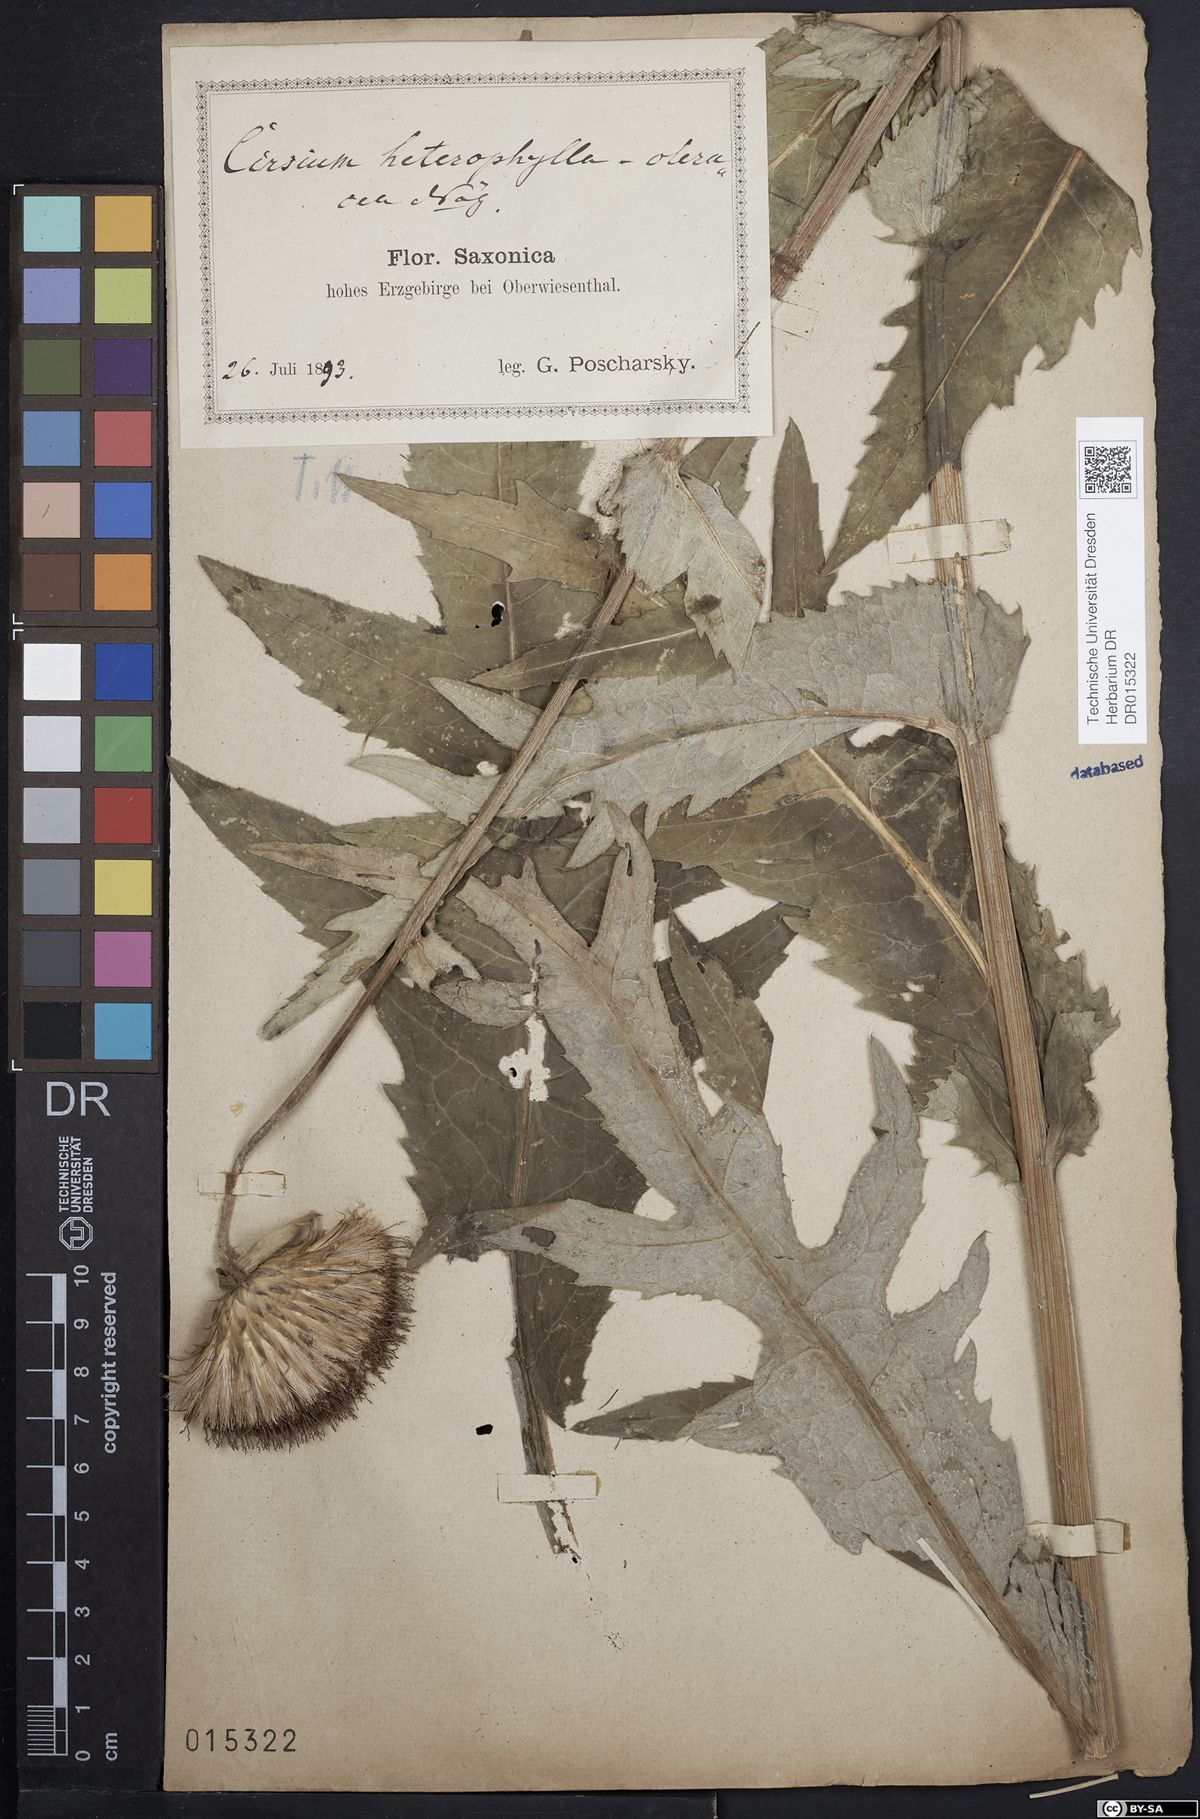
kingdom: Plantae
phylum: Tracheophyta
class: Magnoliopsida
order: Asterales
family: Asteraceae
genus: Cirsium
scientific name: Cirsium affine
